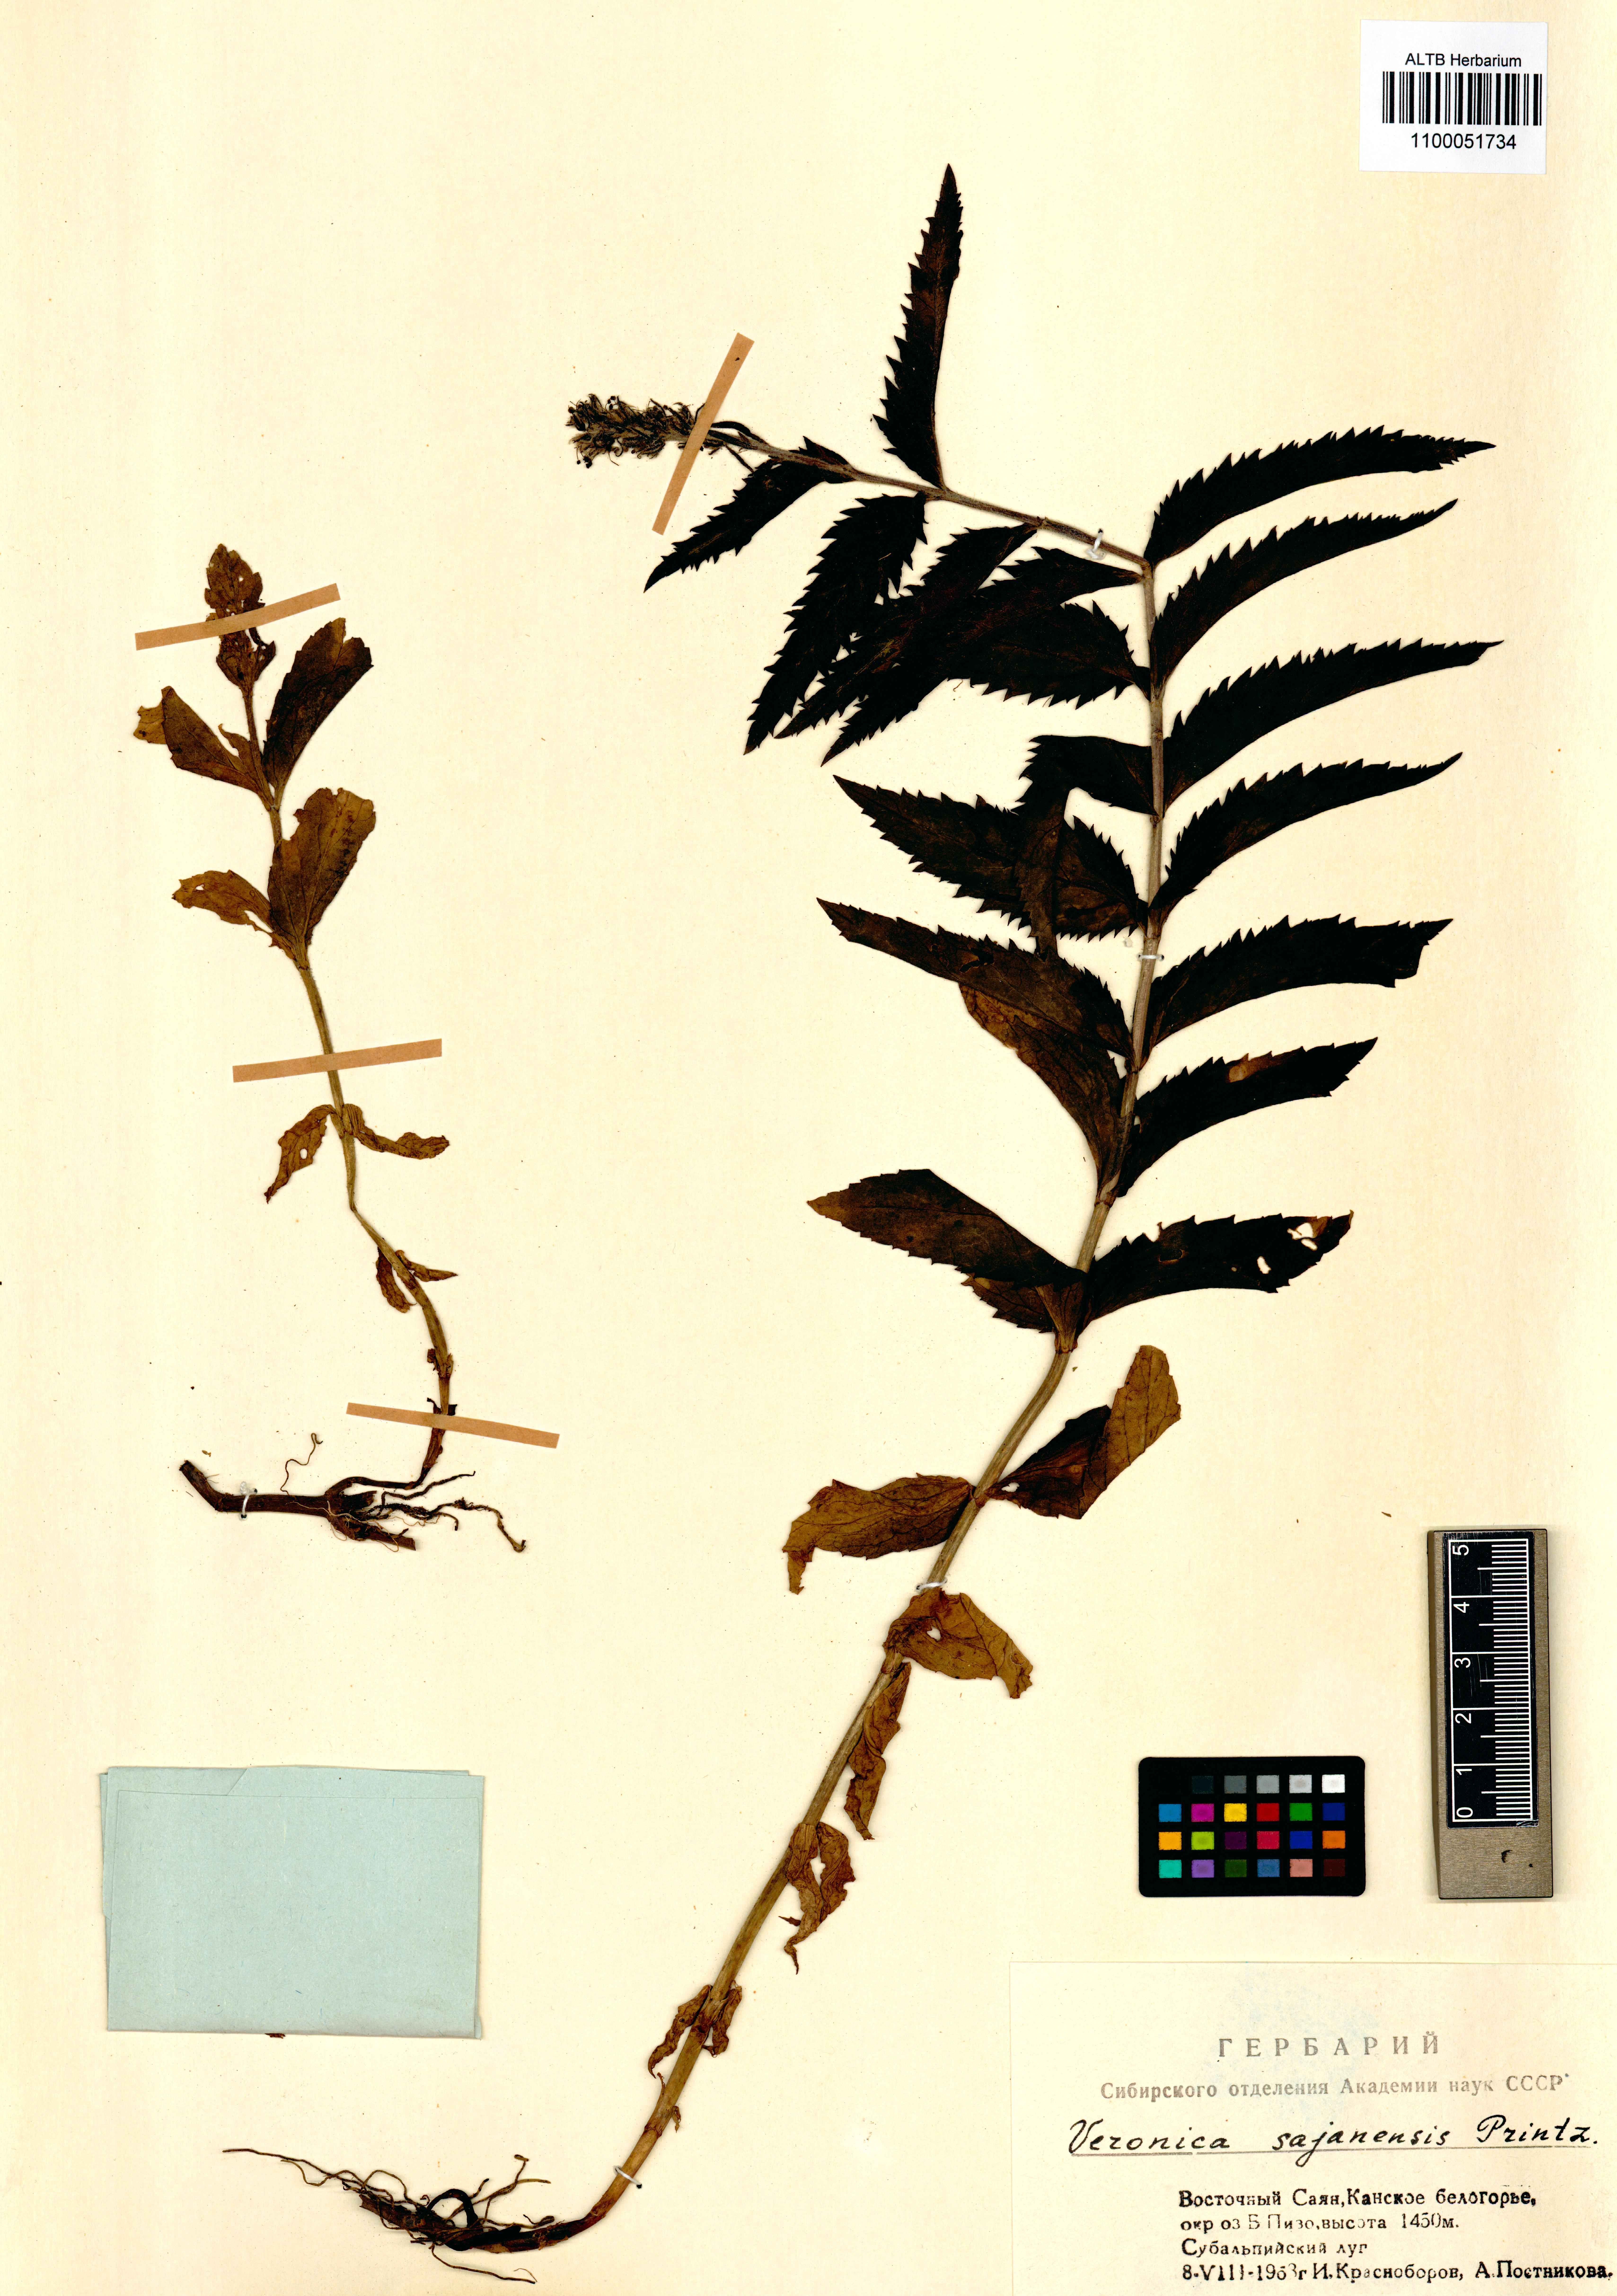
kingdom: Plantae
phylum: Tracheophyta
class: Magnoliopsida
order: Lamiales
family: Plantaginaceae
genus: Veronica
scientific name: Veronica sajanensis
